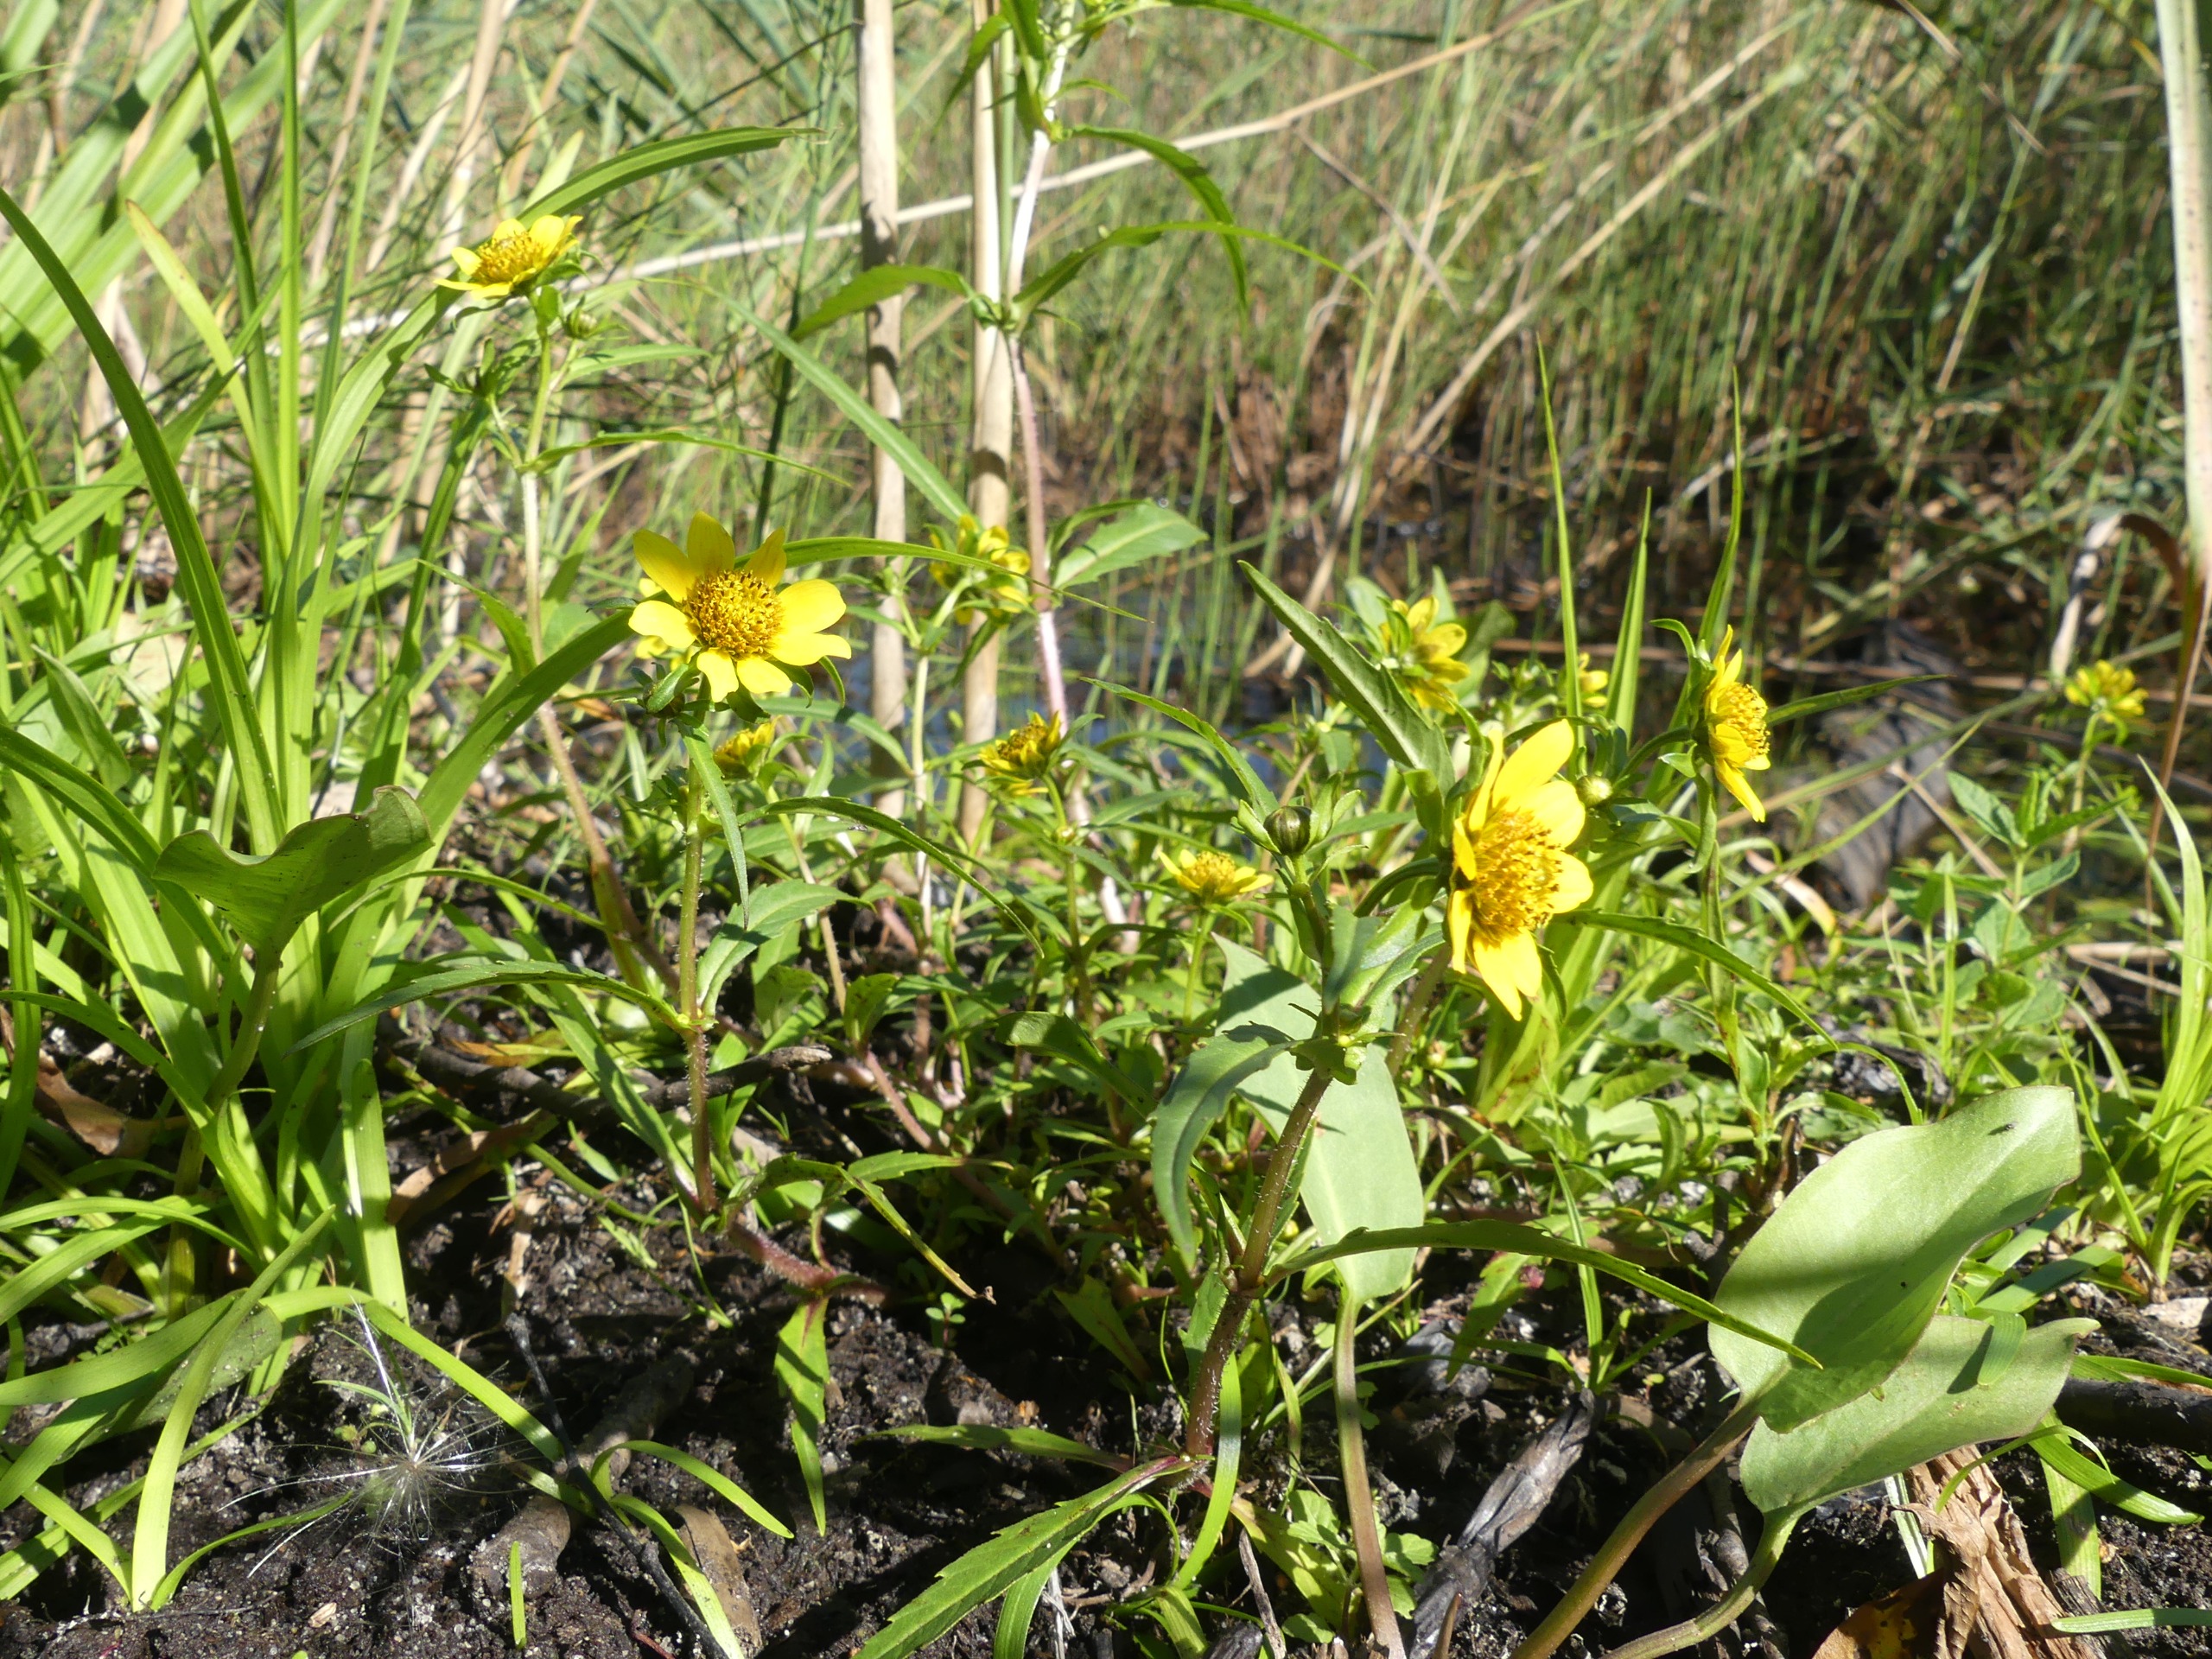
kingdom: Plantae
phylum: Tracheophyta
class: Magnoliopsida
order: Asterales
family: Asteraceae
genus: Bidens
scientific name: Bidens cernua
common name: Nikkende brøndsel
